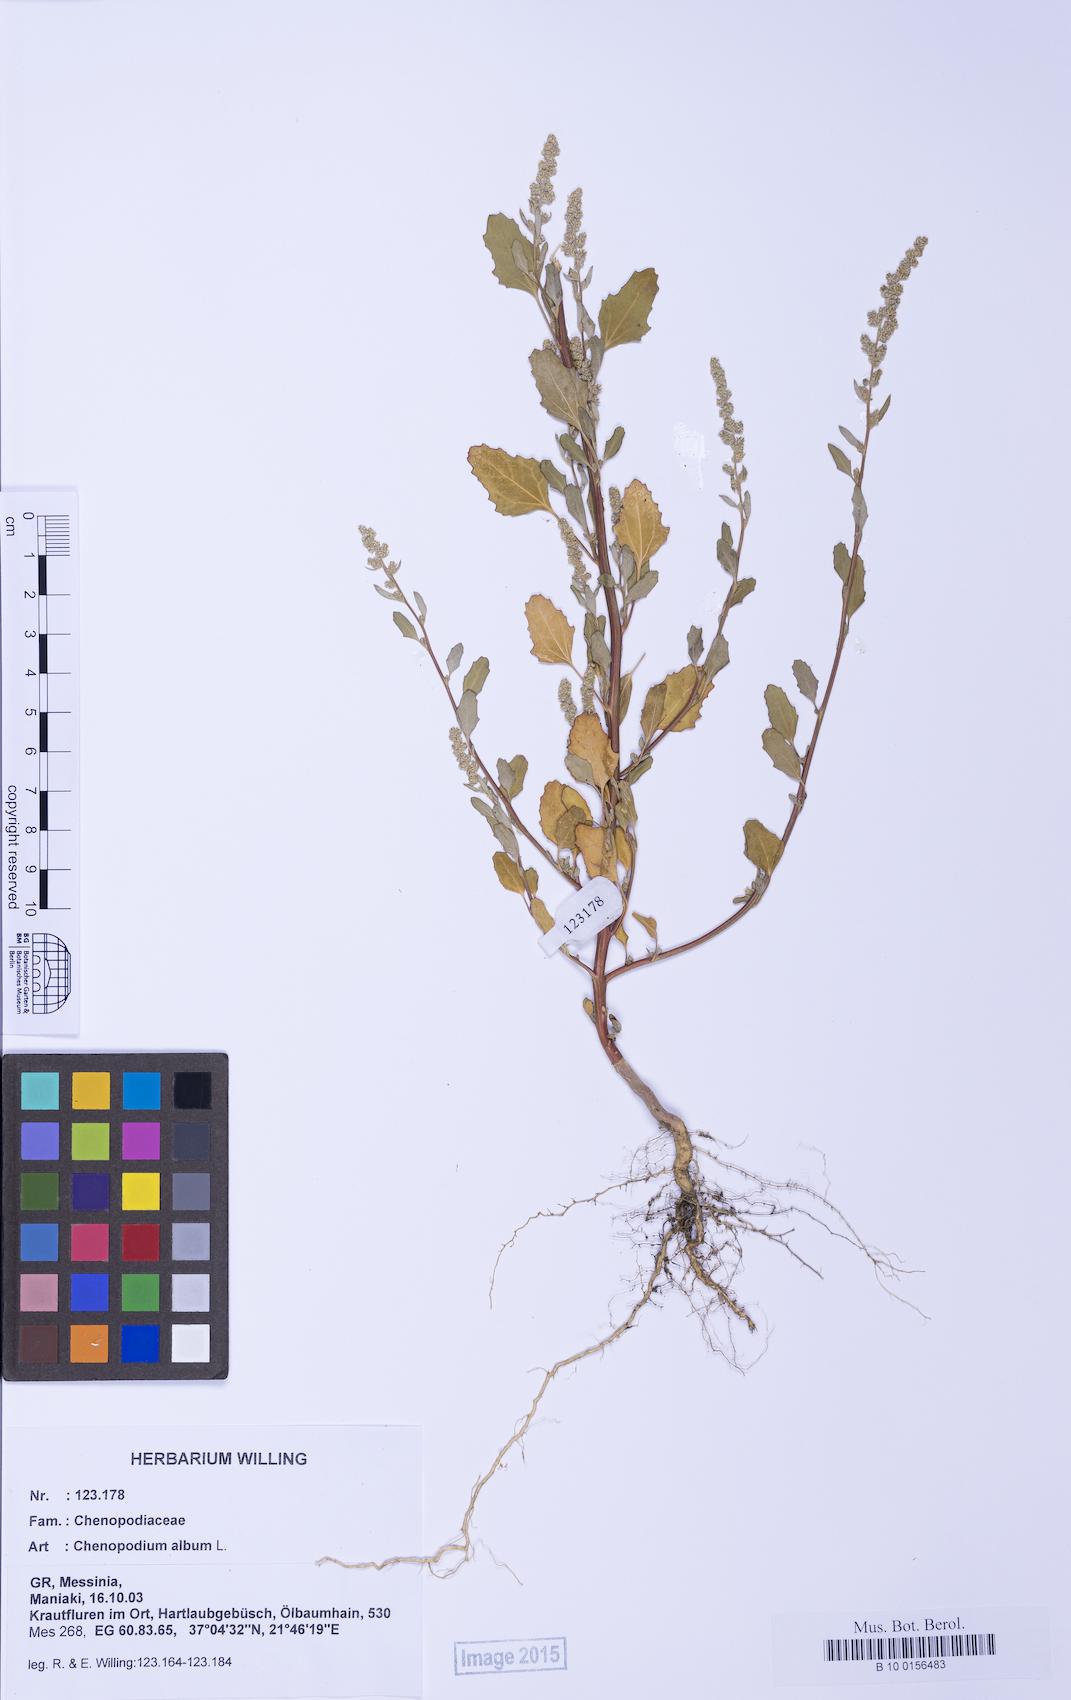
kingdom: Plantae
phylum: Tracheophyta
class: Magnoliopsida
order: Caryophyllales
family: Amaranthaceae
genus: Chenopodium
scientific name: Chenopodium album
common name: Fat-hen
